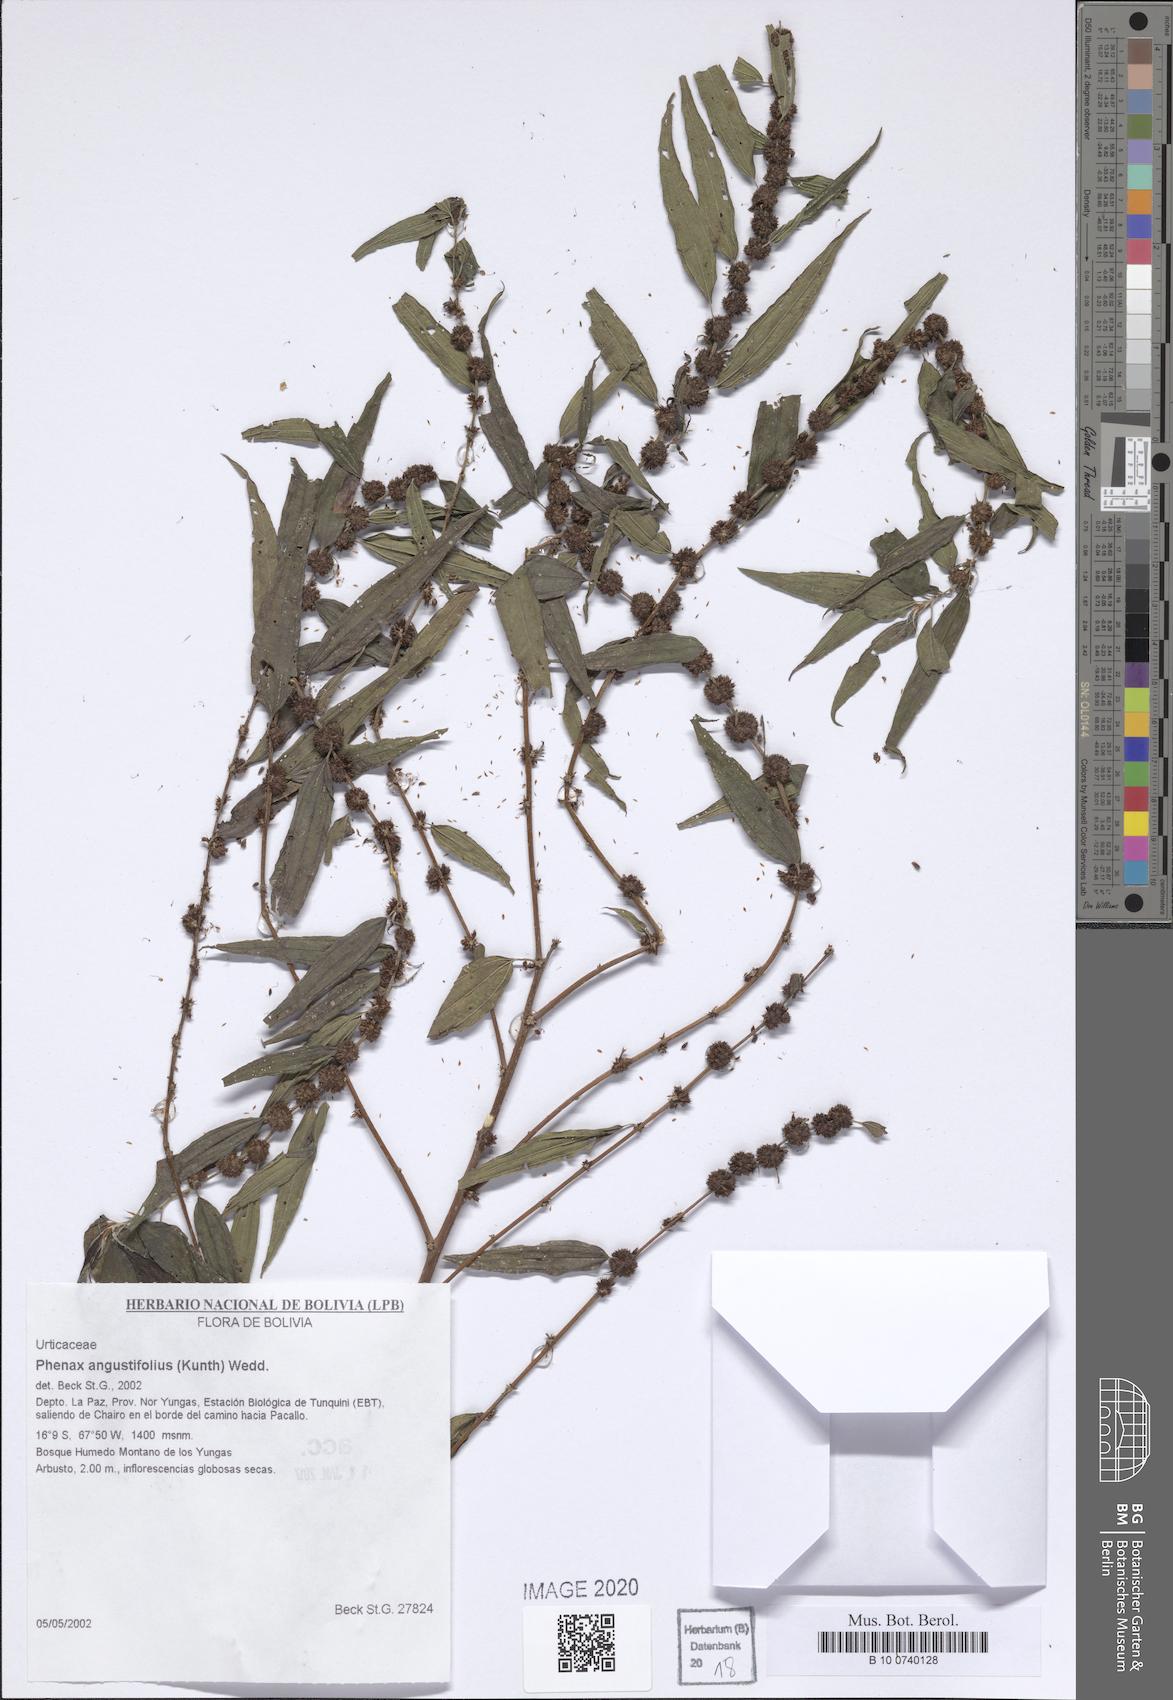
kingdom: Plantae
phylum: Tracheophyta
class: Magnoliopsida
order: Rosales
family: Urticaceae
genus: Phenax
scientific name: Phenax angustifolius
